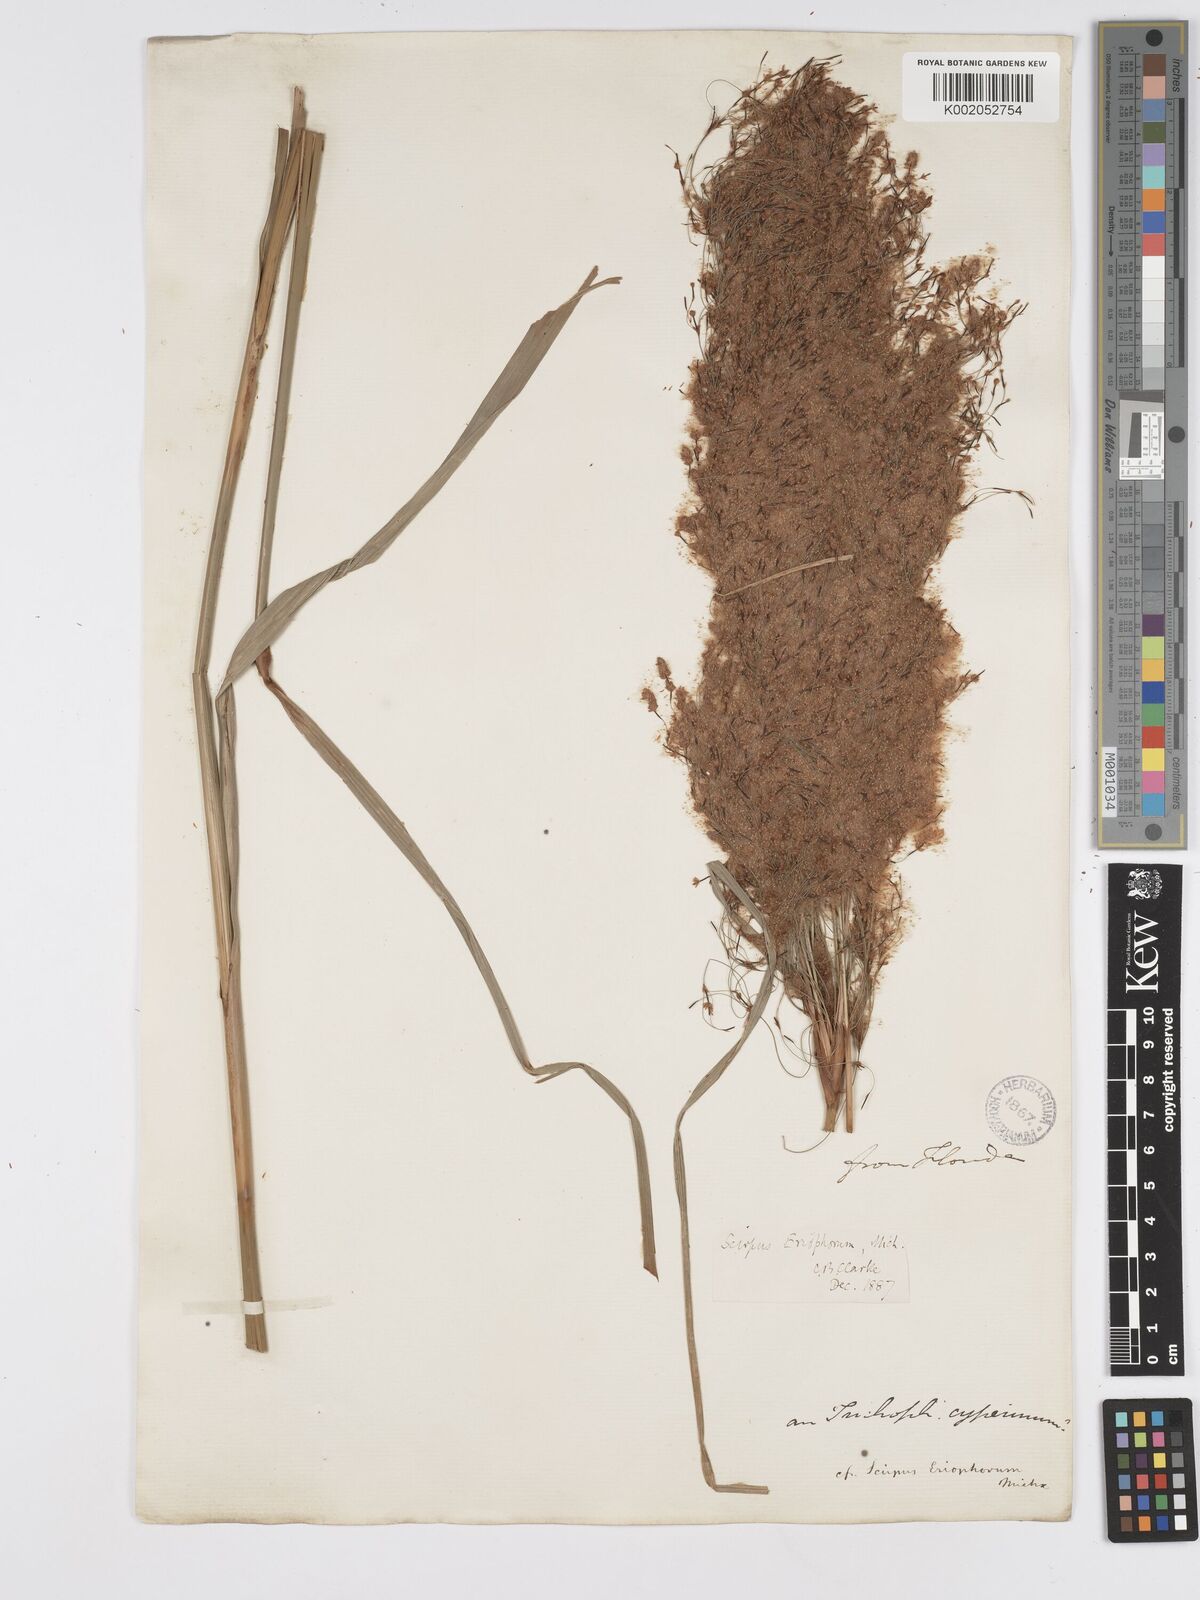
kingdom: Plantae
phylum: Tracheophyta
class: Liliopsida
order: Poales
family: Cyperaceae
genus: Scirpus
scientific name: Scirpus cyperinus
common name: Black-sheathed bulrush
